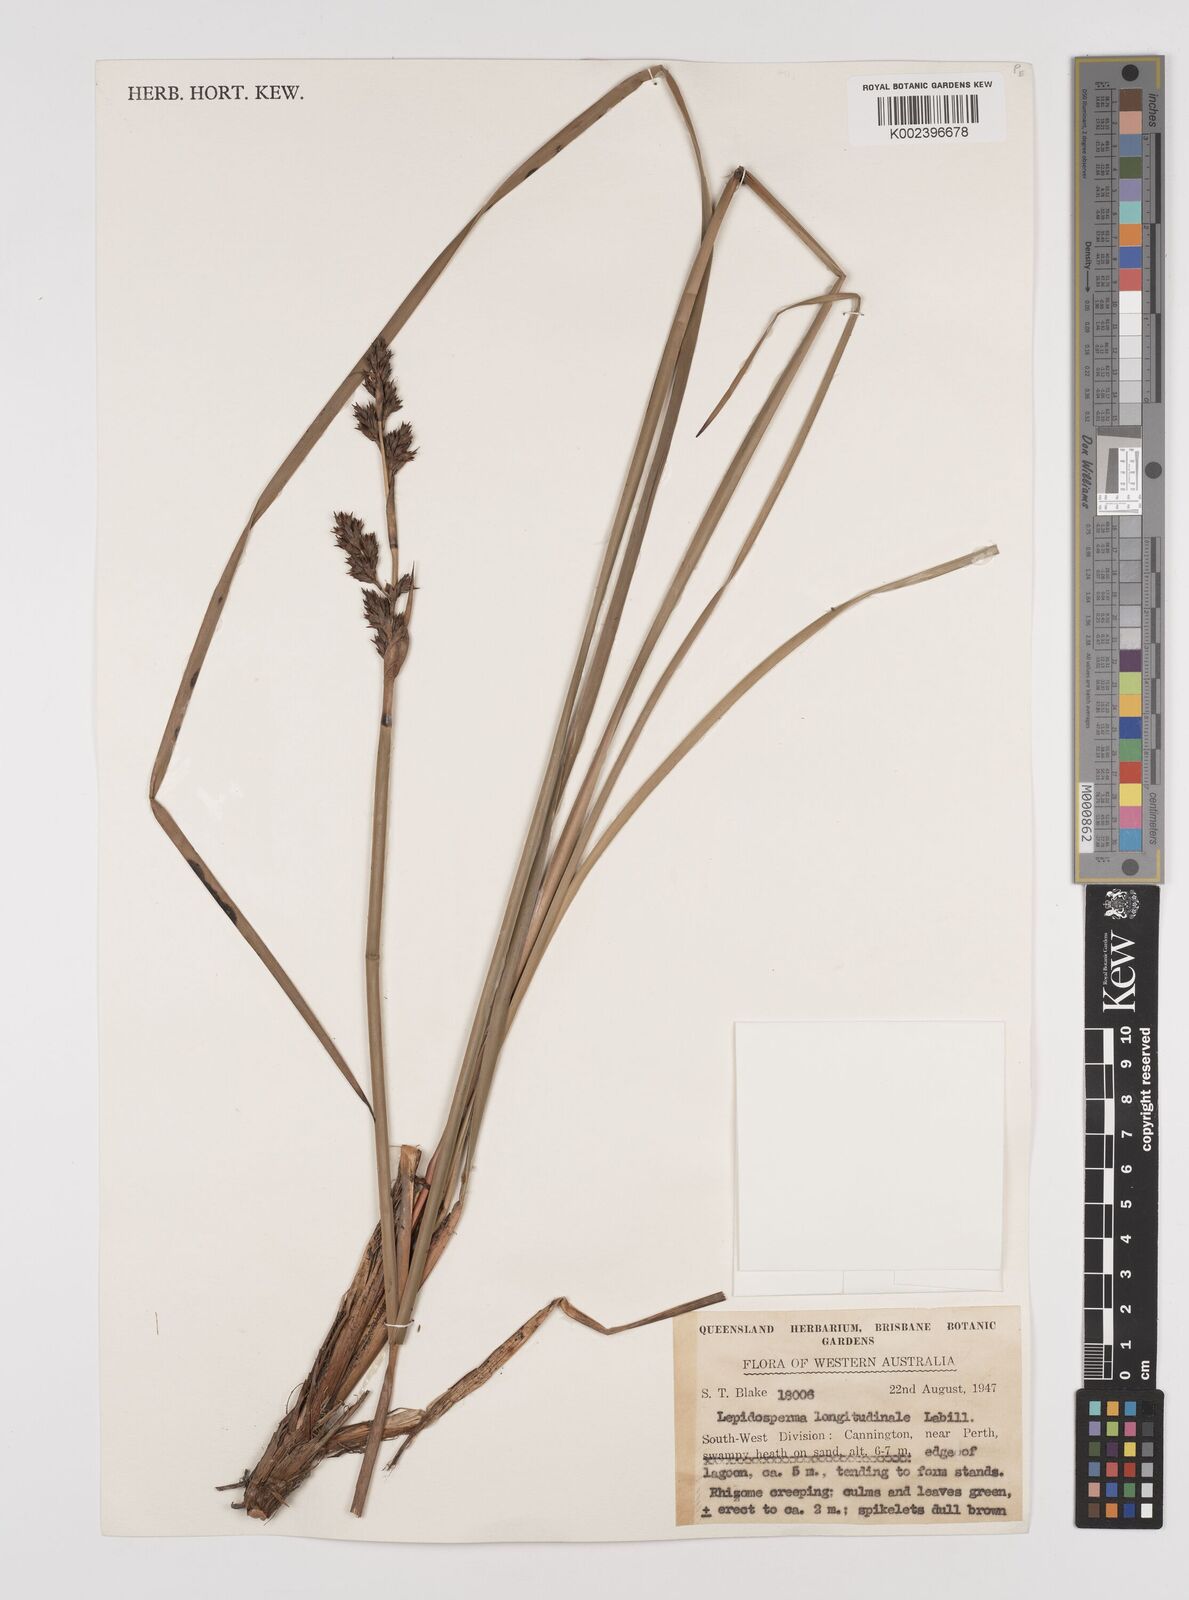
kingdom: Plantae
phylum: Tracheophyta
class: Liliopsida
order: Poales
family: Cyperaceae
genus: Lepidosperma
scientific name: Lepidosperma longitudinale
